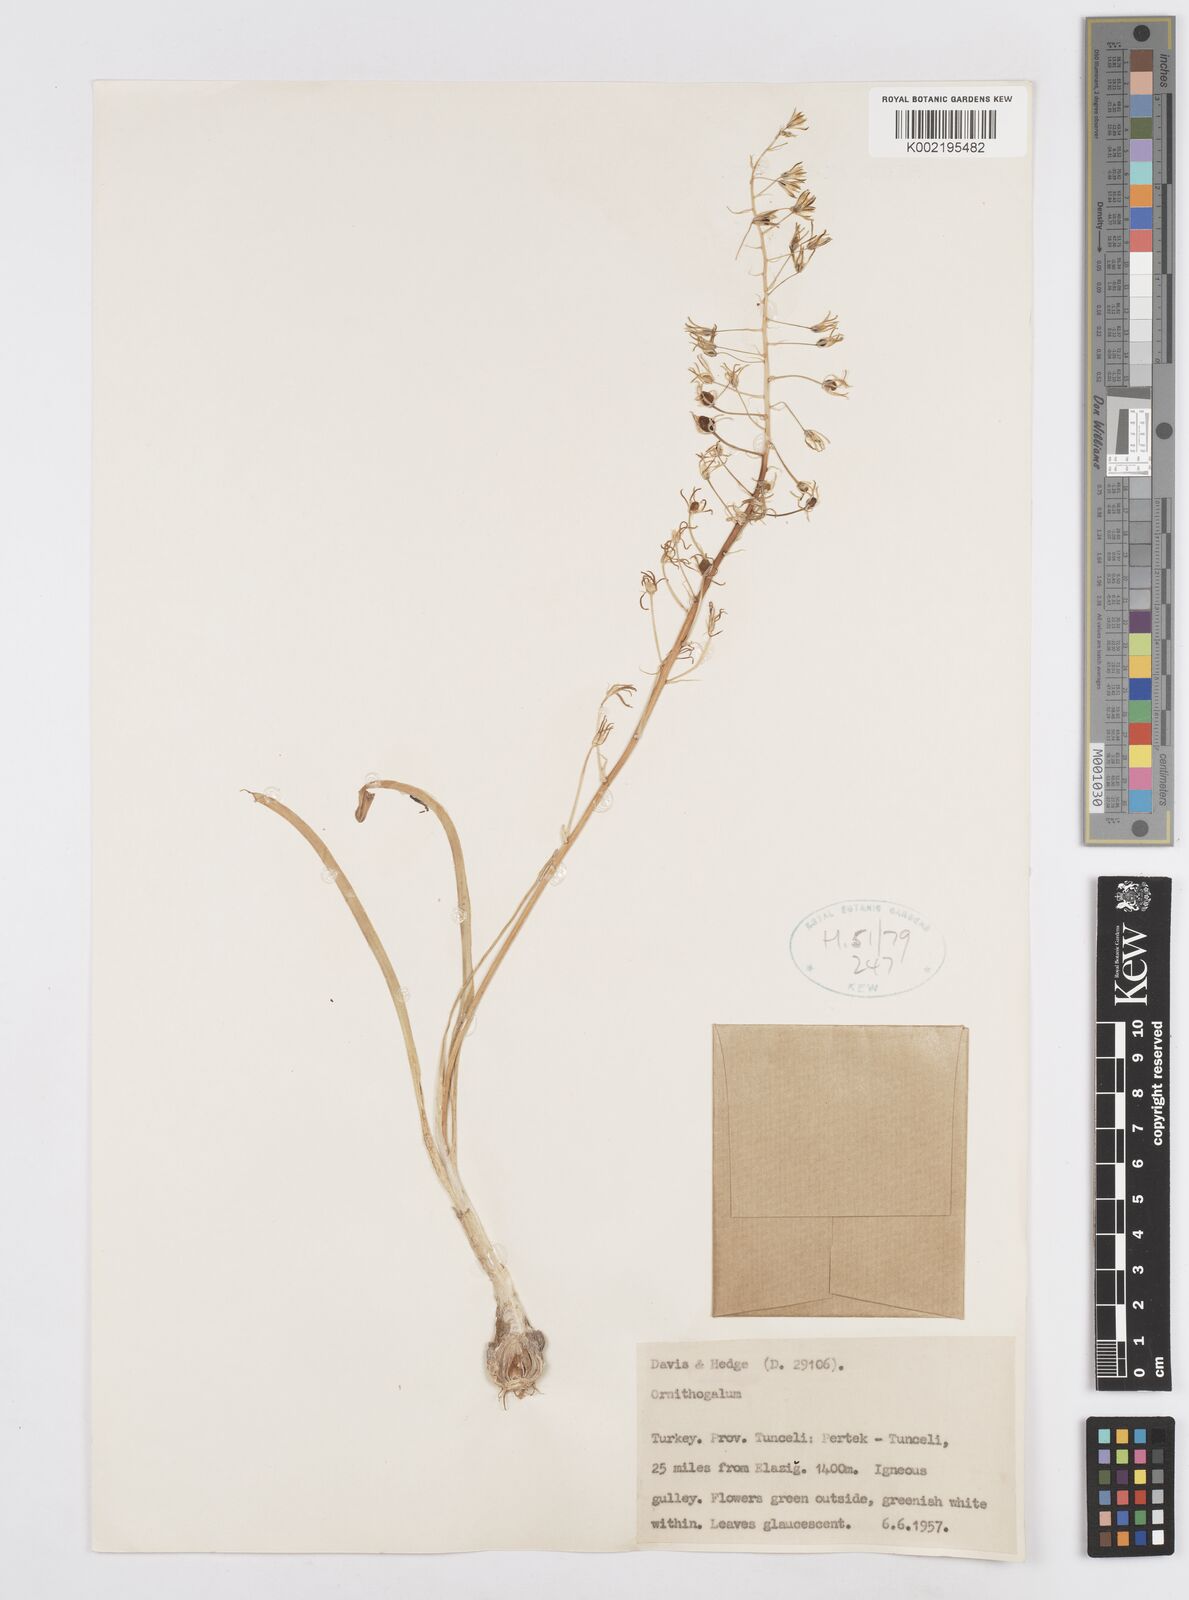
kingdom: Plantae
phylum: Tracheophyta
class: Liliopsida
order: Asparagales
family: Asparagaceae
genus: Ornithogalum
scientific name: Ornithogalum
